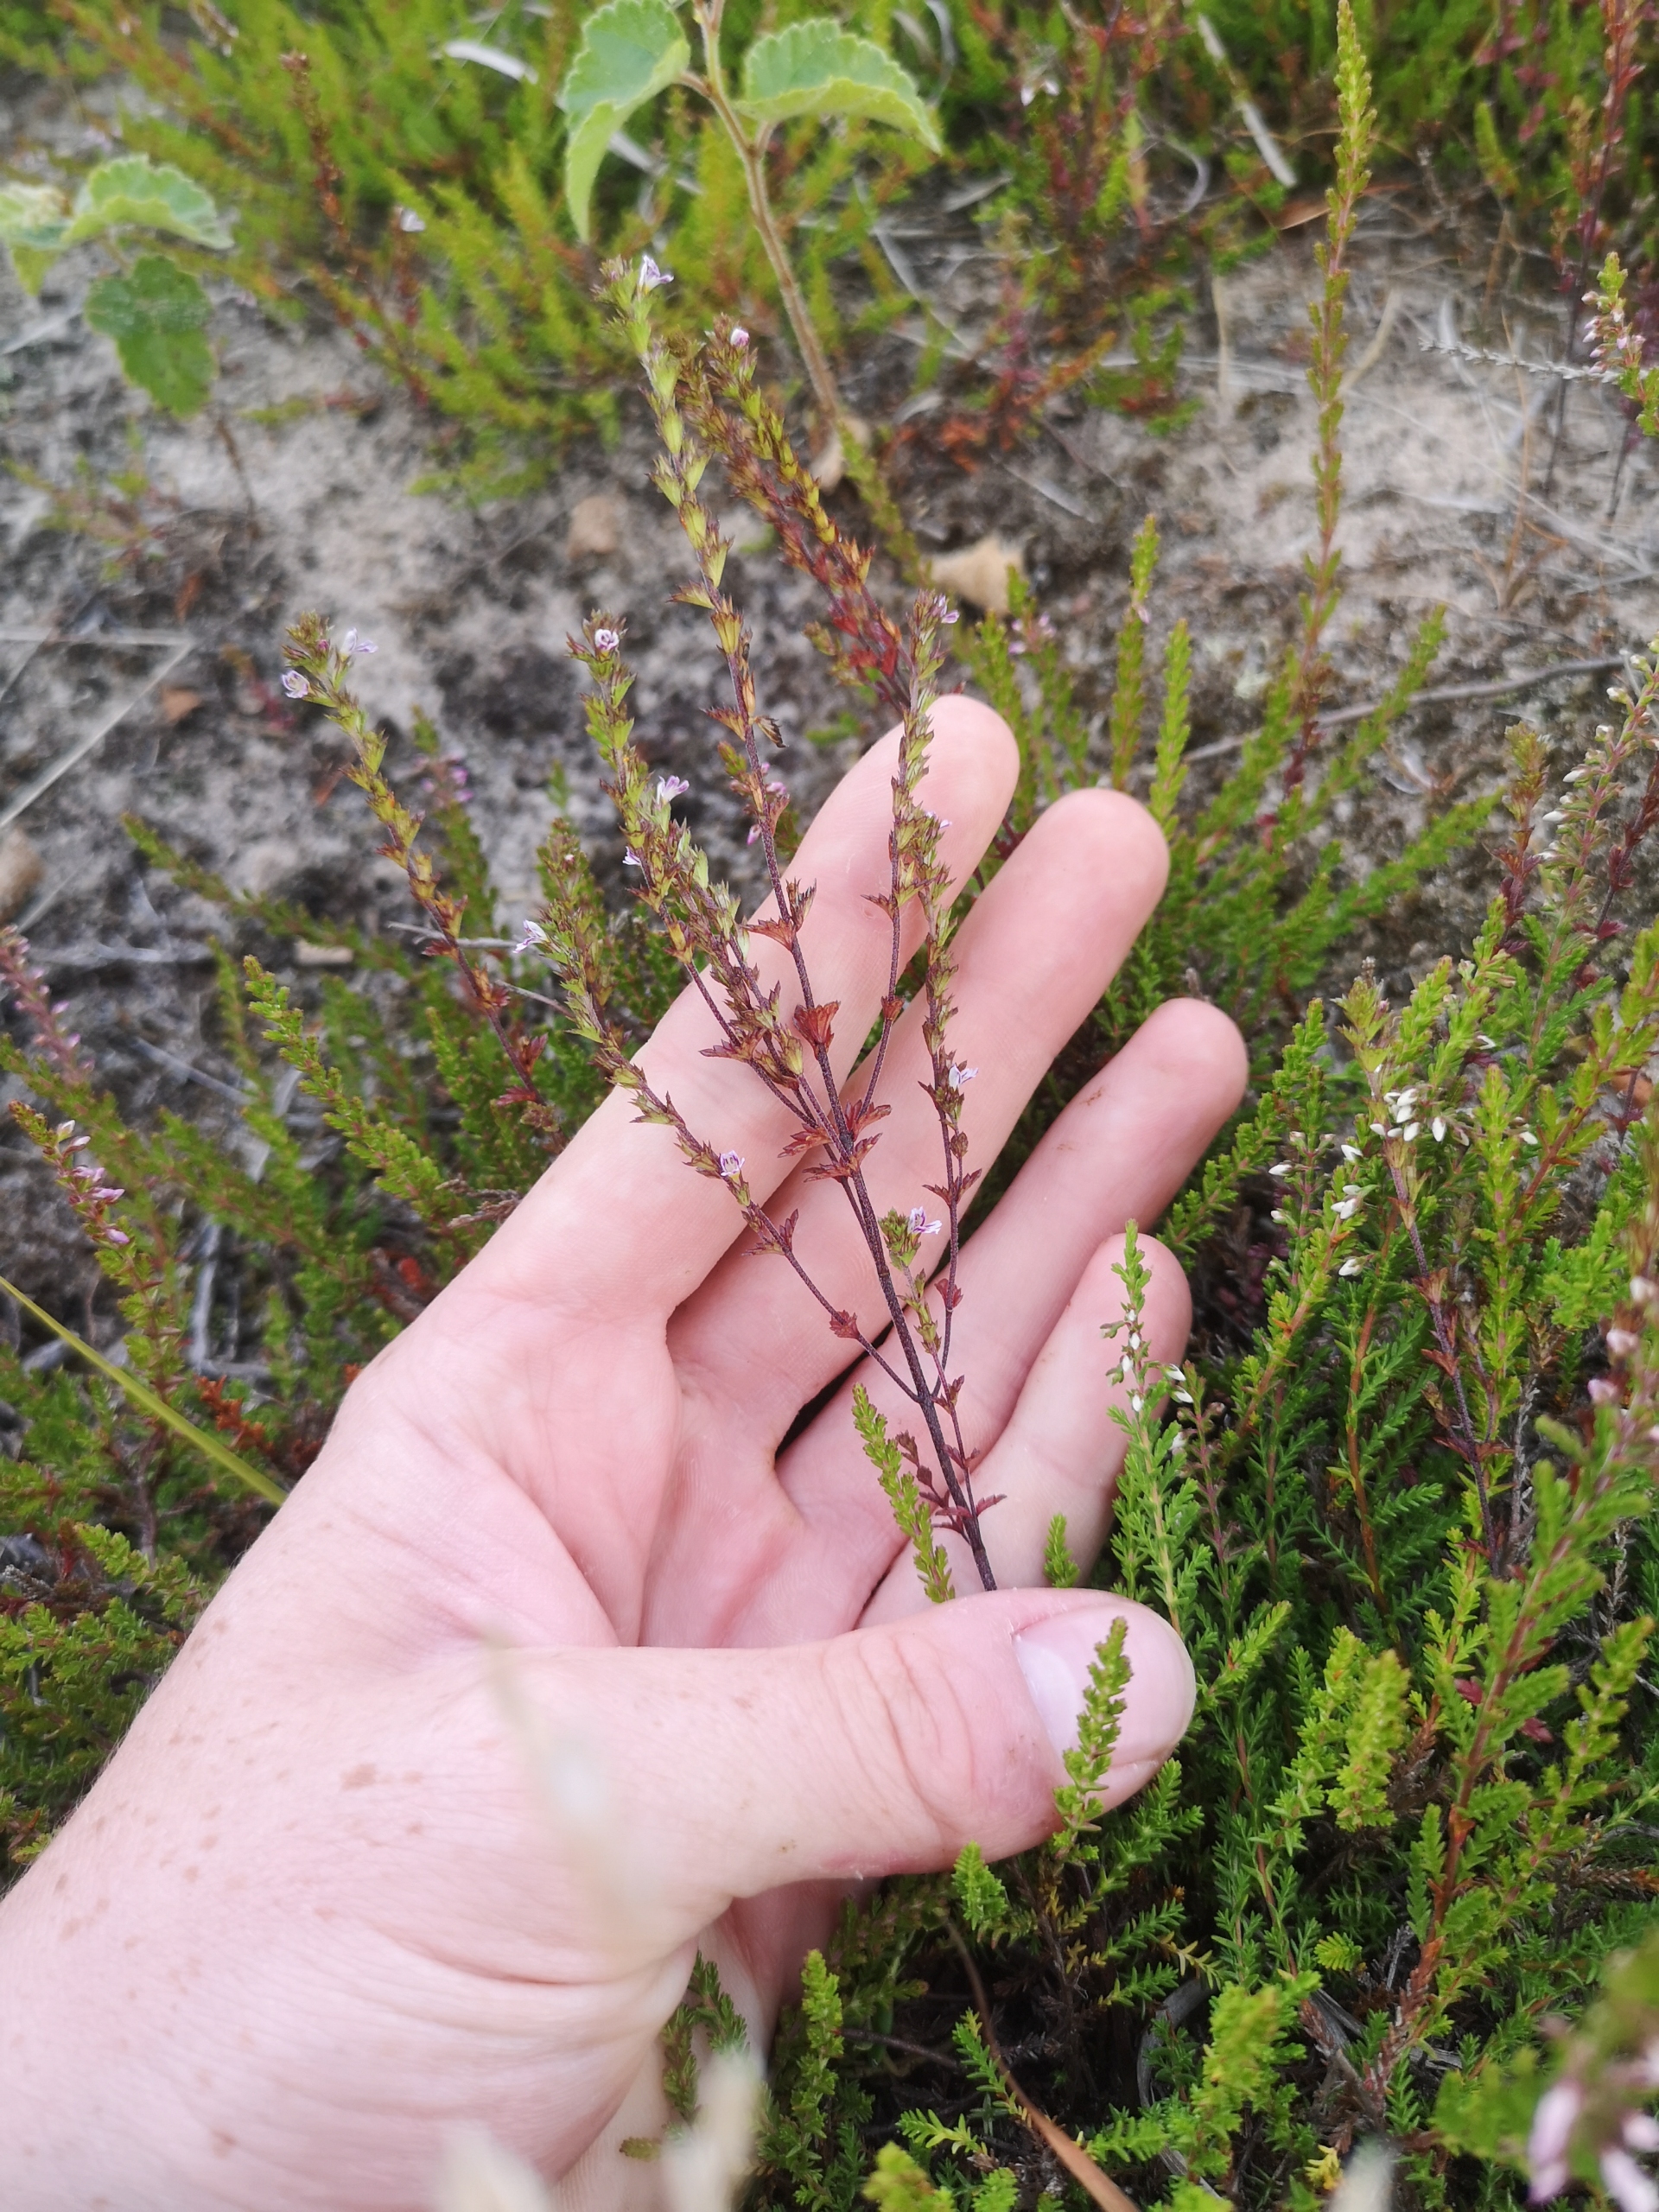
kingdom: Plantae
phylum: Tracheophyta
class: Magnoliopsida
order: Lamiales
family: Orobanchaceae
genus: Euphrasia
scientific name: Euphrasia micrantha
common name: Lyng-øjentrøst
